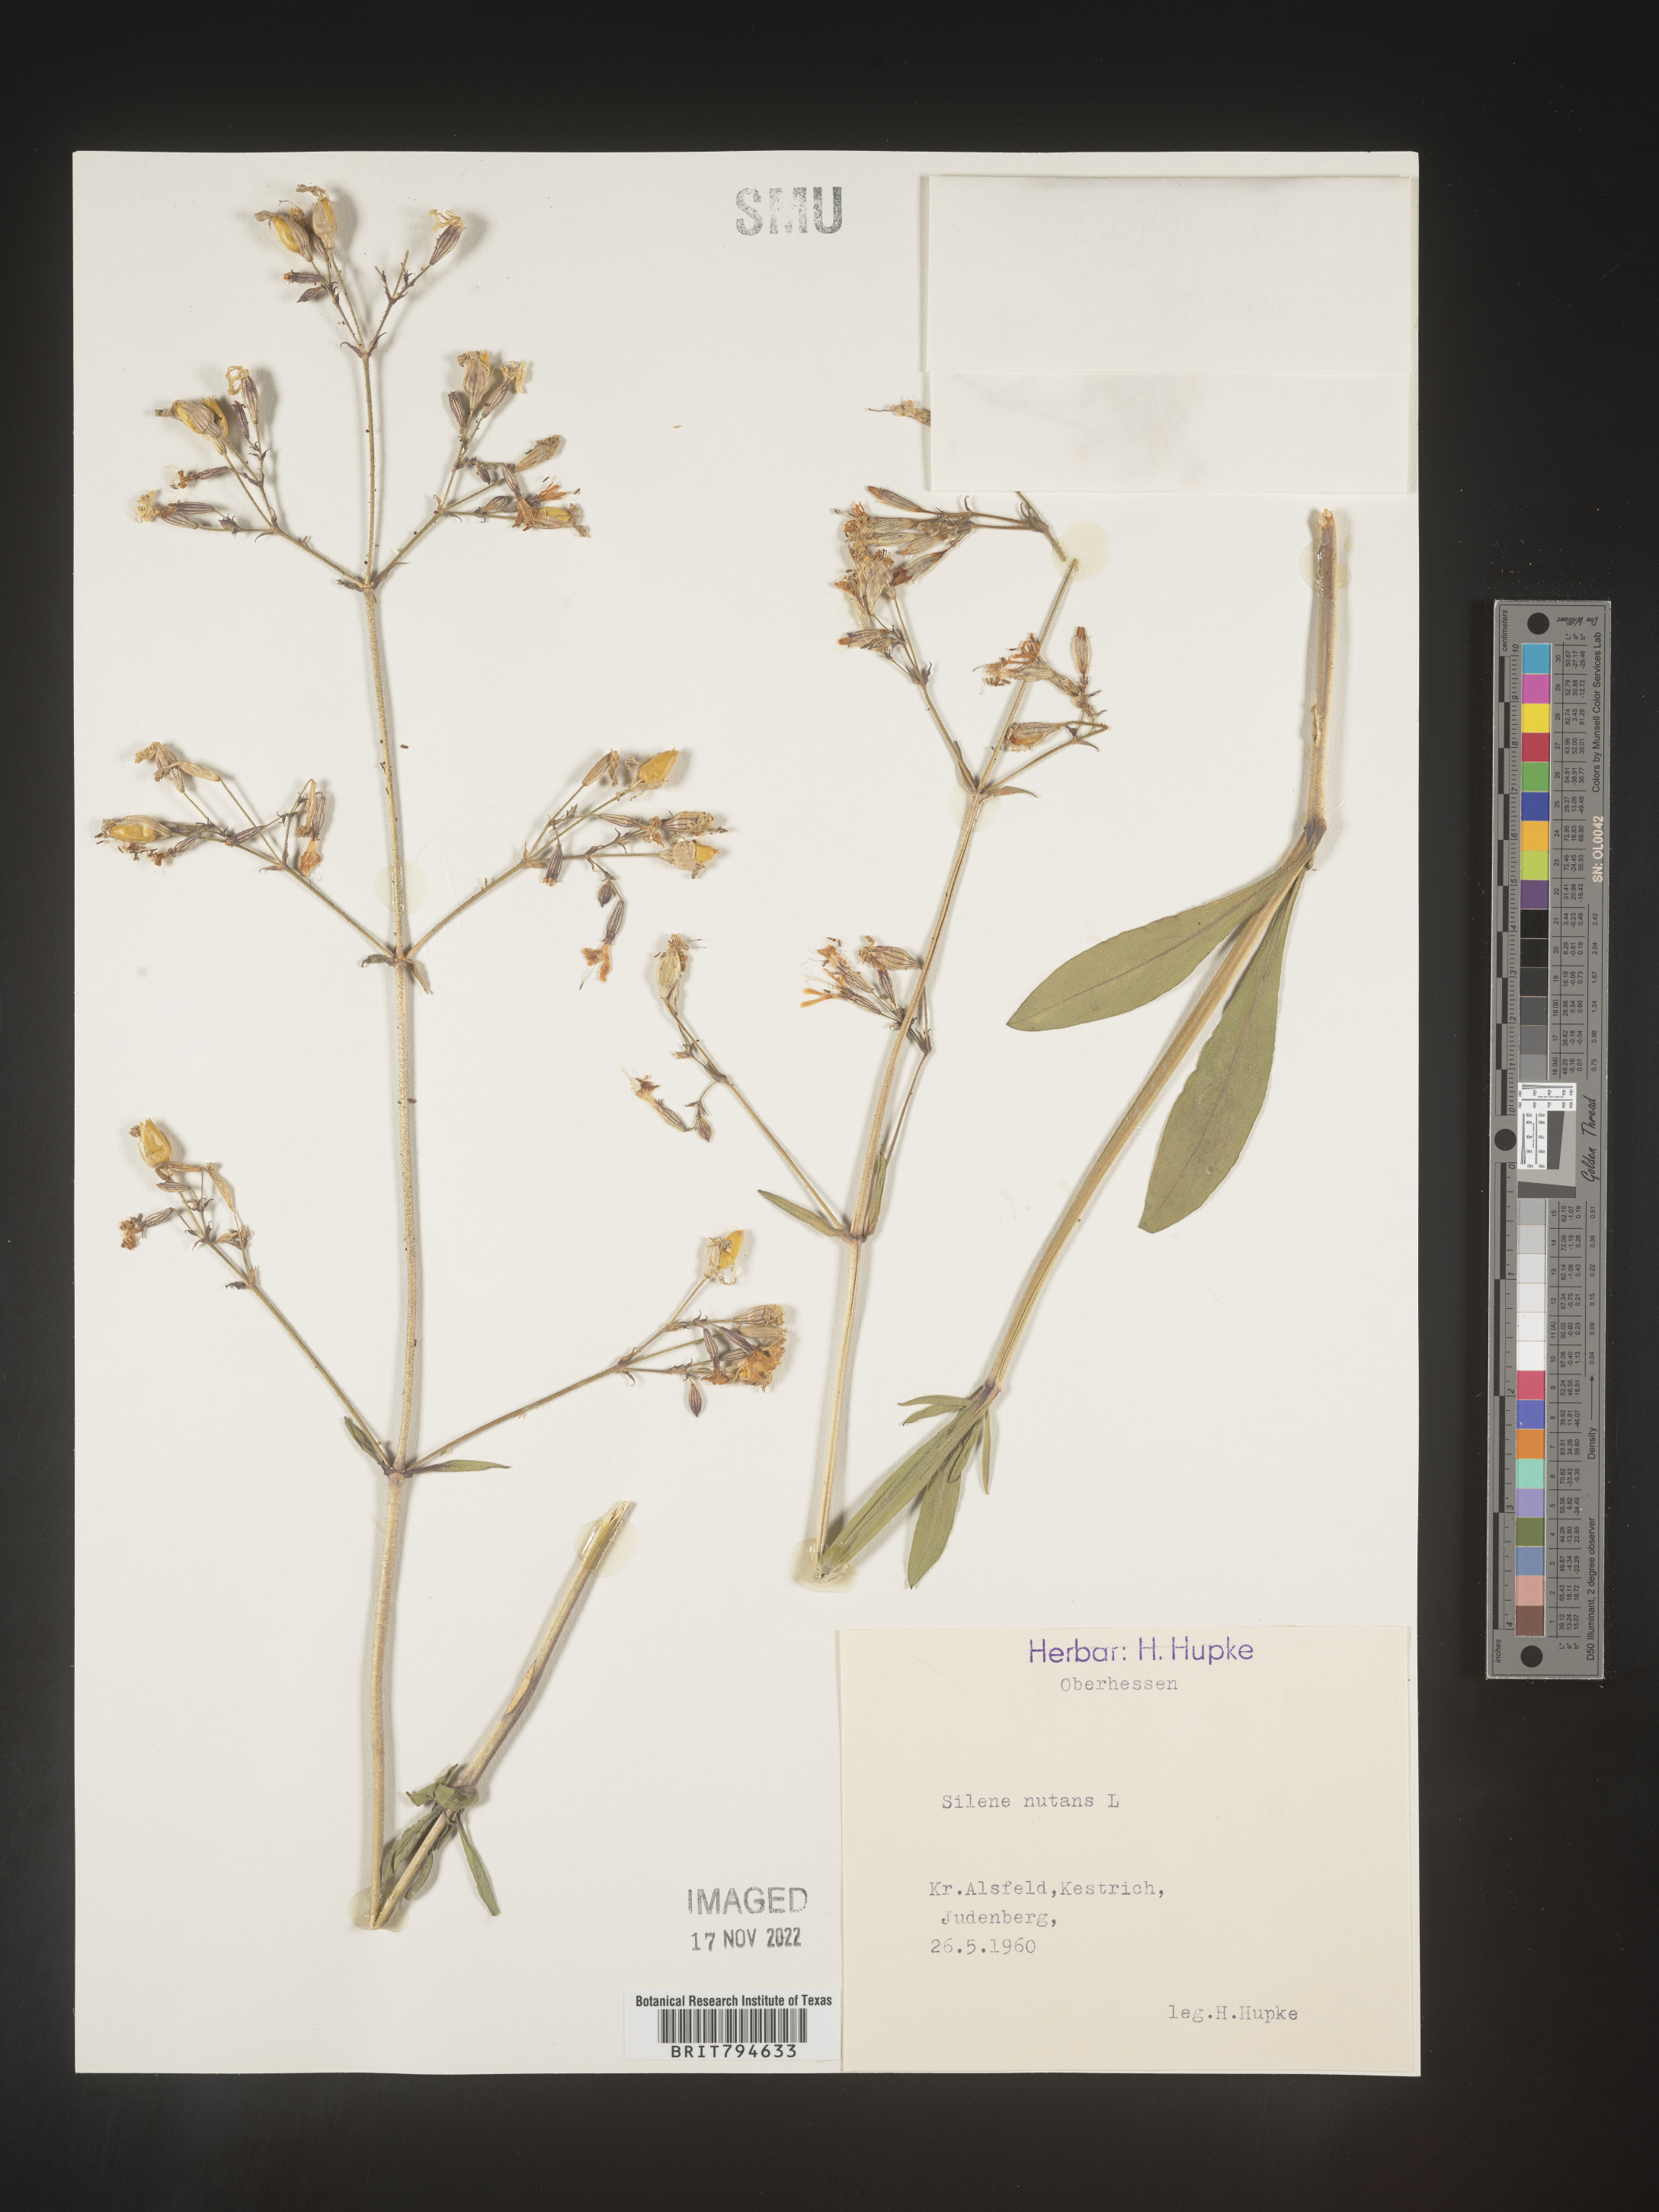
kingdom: Plantae
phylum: Tracheophyta
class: Magnoliopsida
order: Caryophyllales
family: Caryophyllaceae
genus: Silene
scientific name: Silene nutans
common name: Nottingham catchfly
